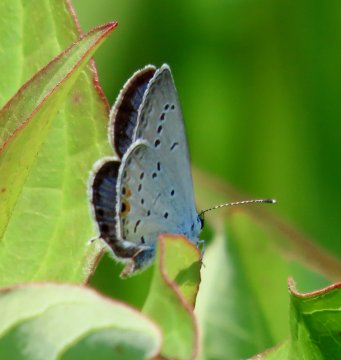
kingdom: Animalia
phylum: Arthropoda
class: Insecta
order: Lepidoptera
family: Lycaenidae
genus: Elkalyce
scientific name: Elkalyce comyntas
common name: Eastern Tailed-Blue
